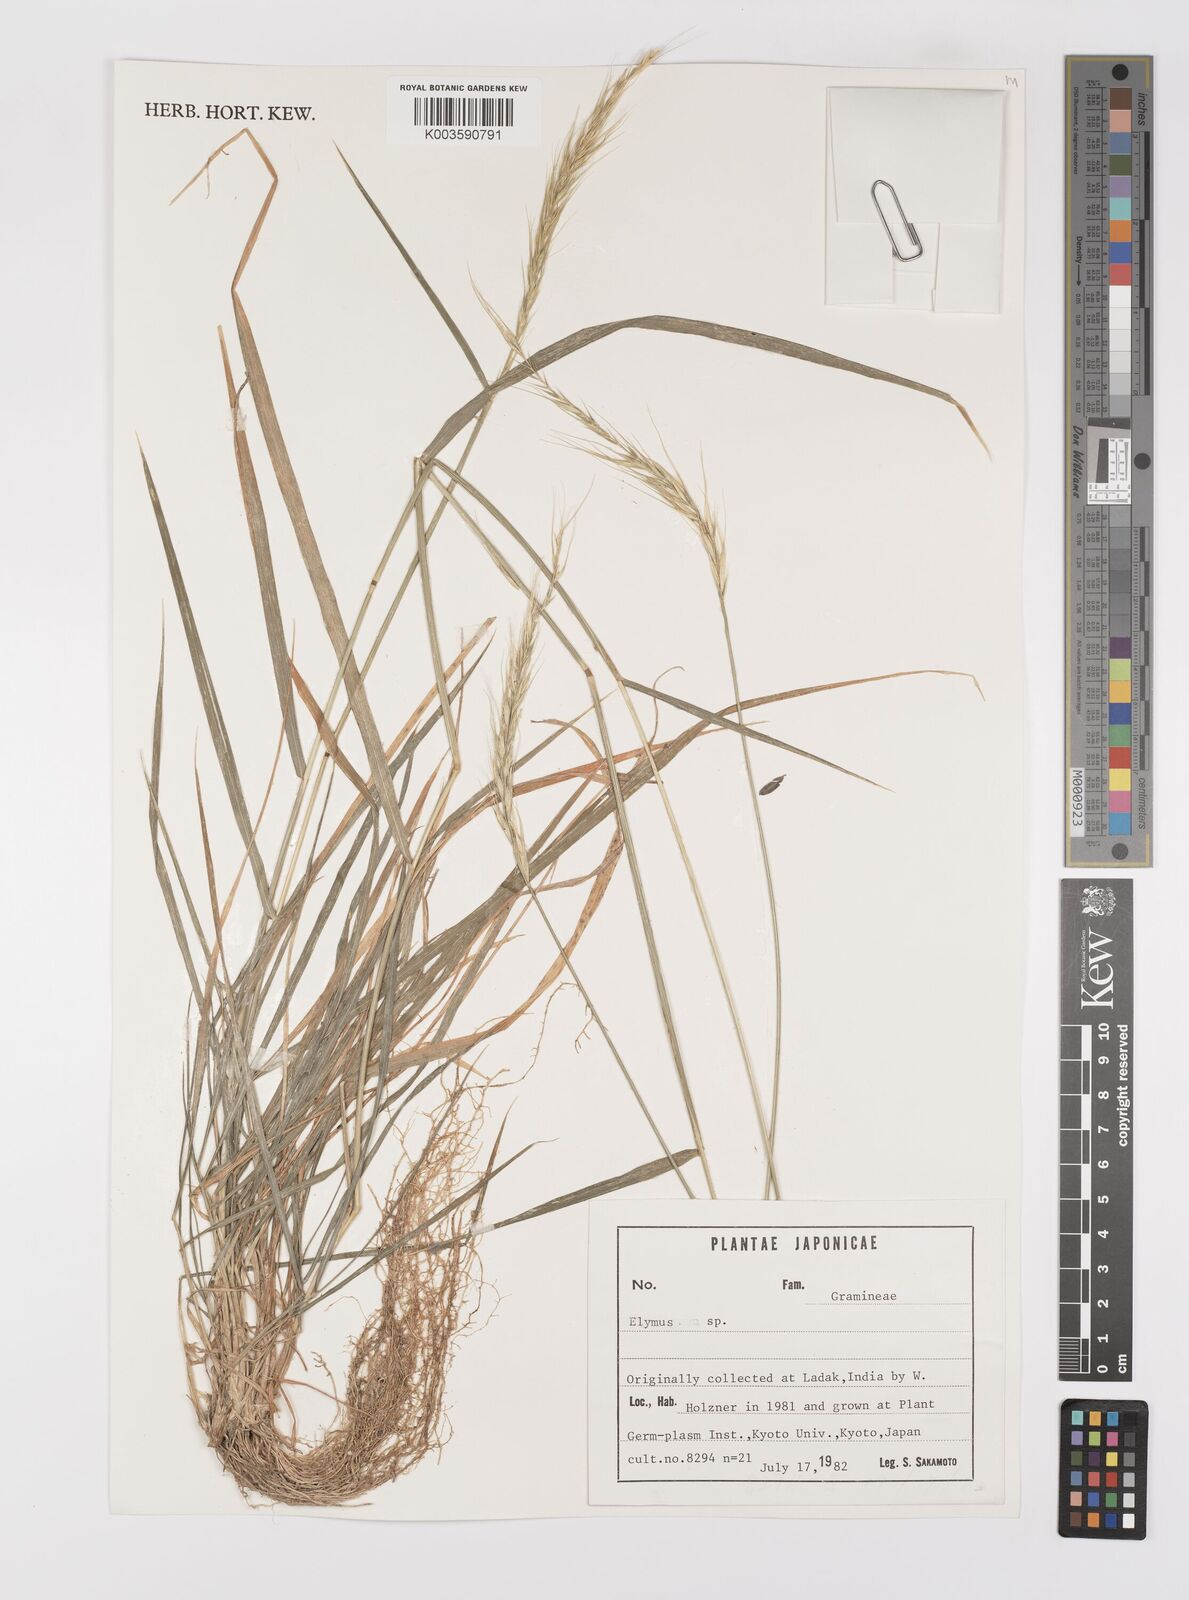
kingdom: Plantae
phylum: Tracheophyta
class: Liliopsida
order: Poales
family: Poaceae
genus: Elymus
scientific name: Elymus
